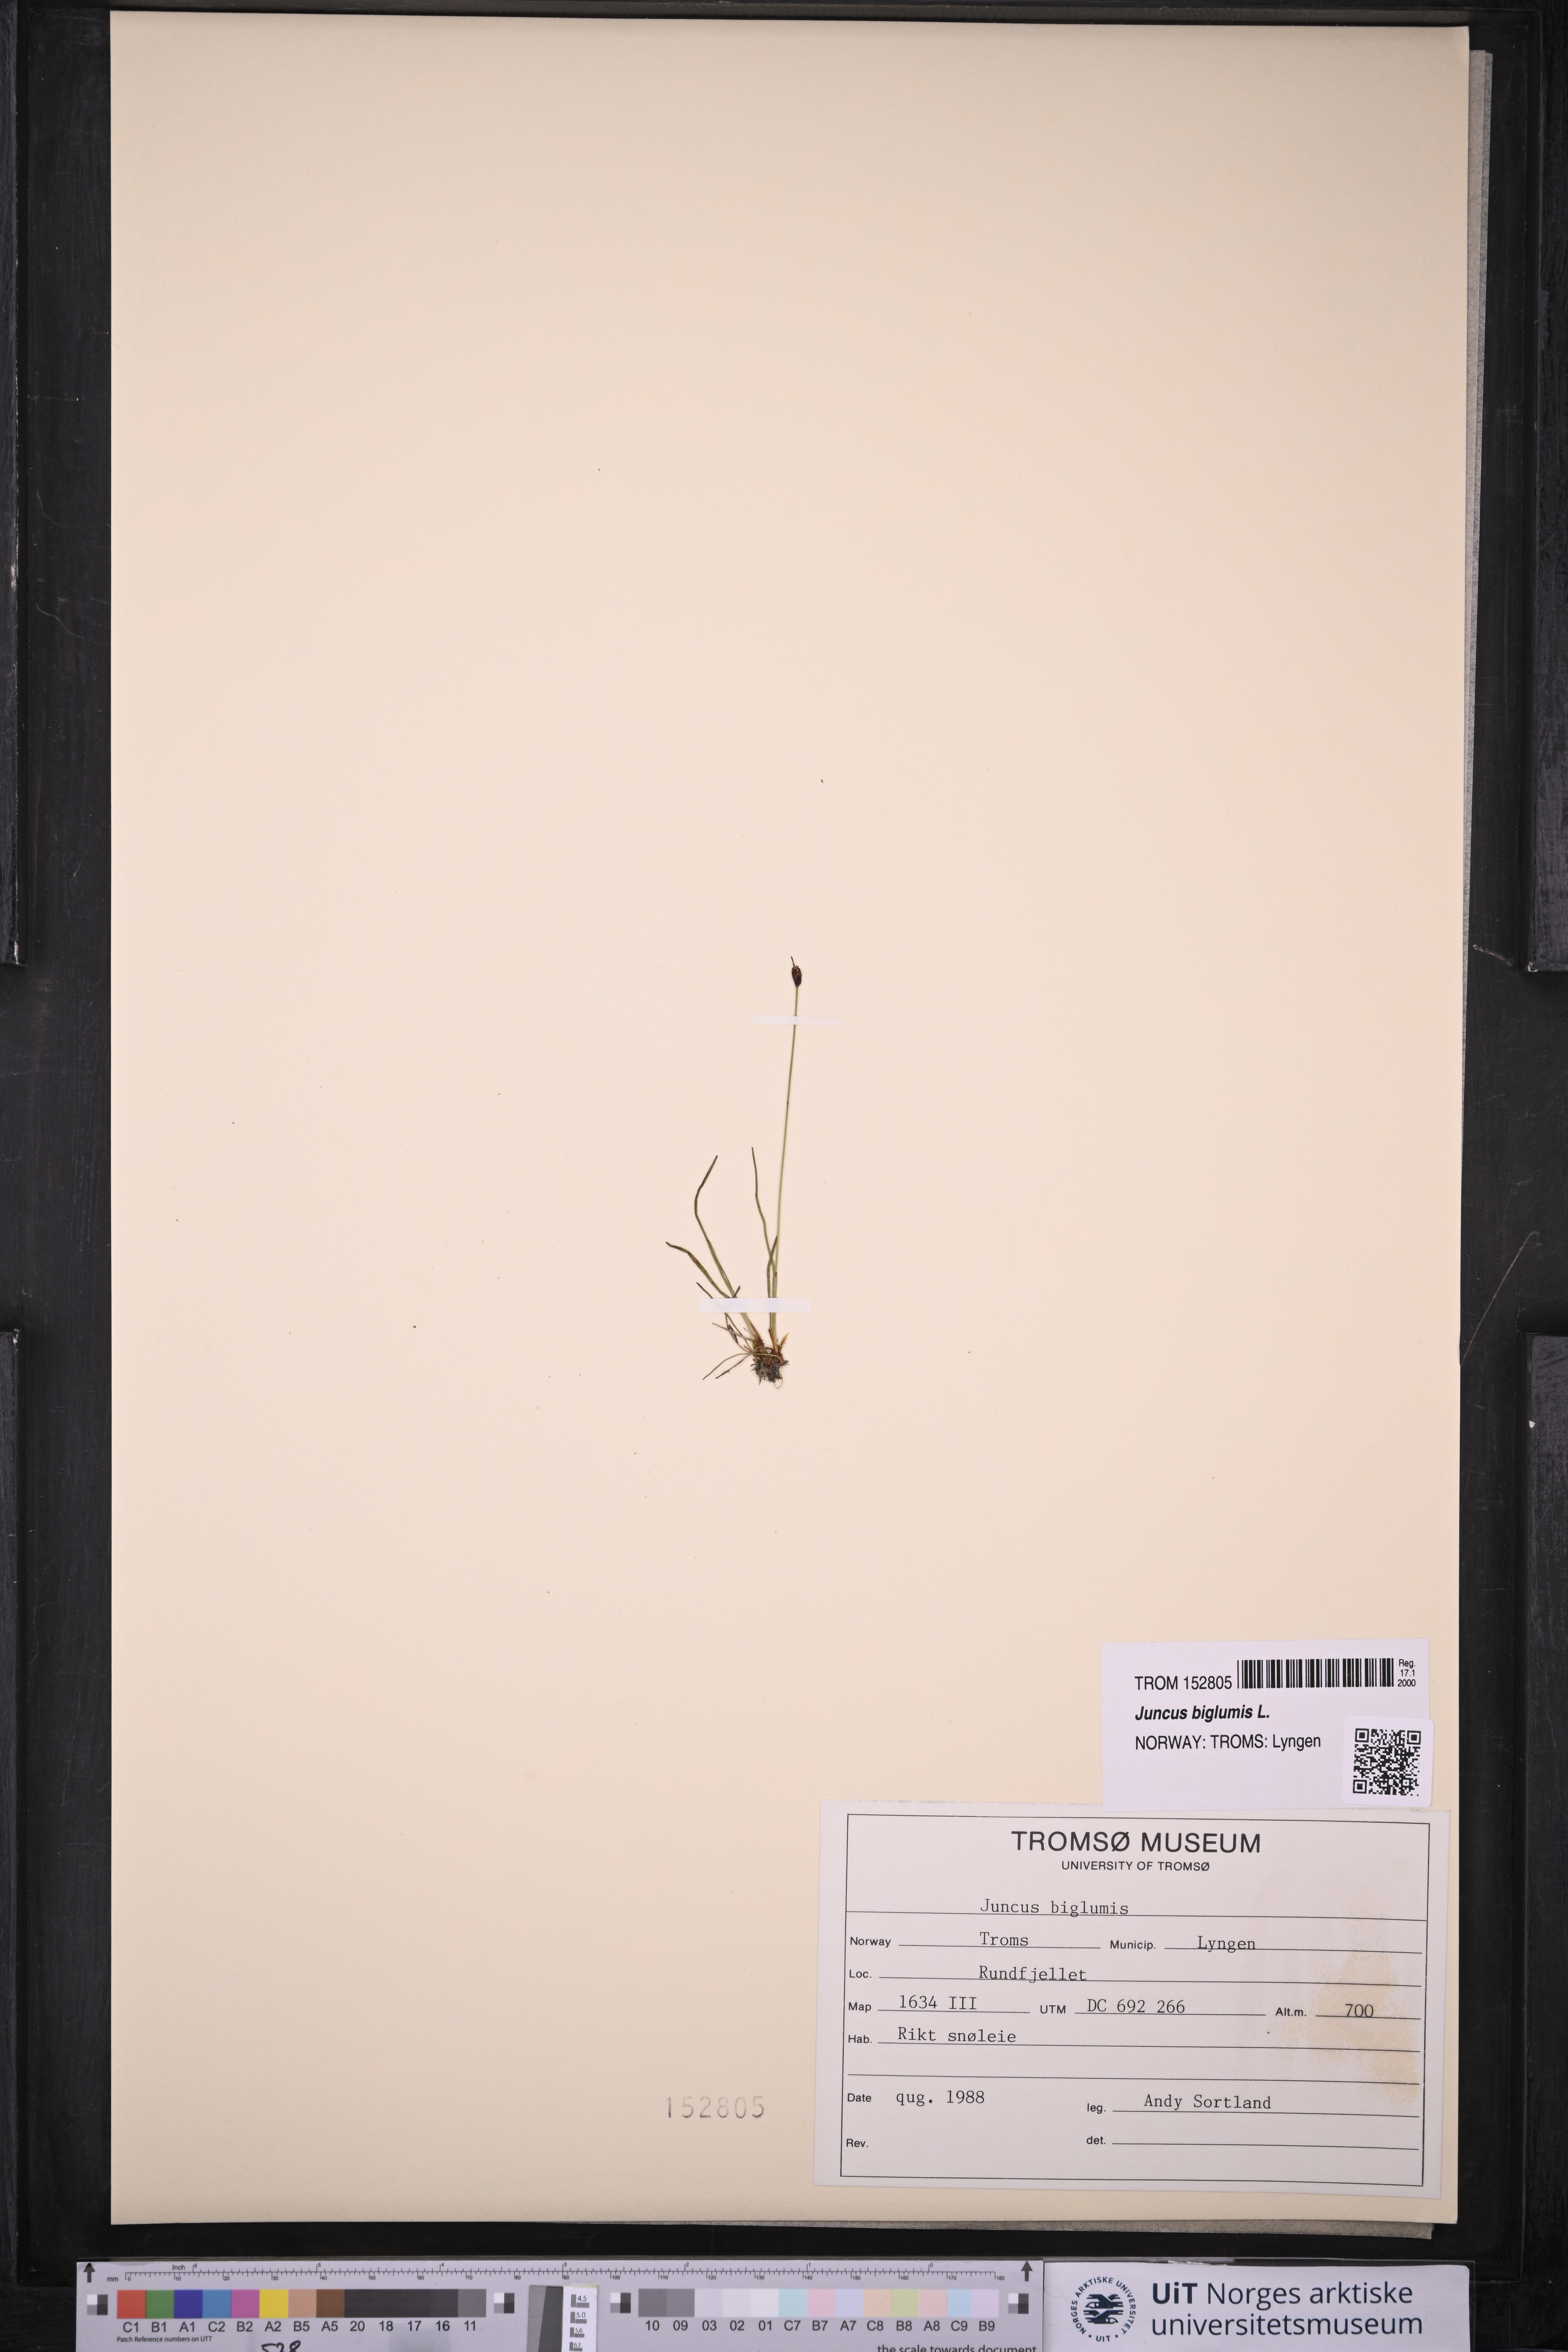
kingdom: Plantae
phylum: Tracheophyta
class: Liliopsida
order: Poales
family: Juncaceae
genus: Juncus
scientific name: Juncus biglumis
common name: Two-flowered rush
